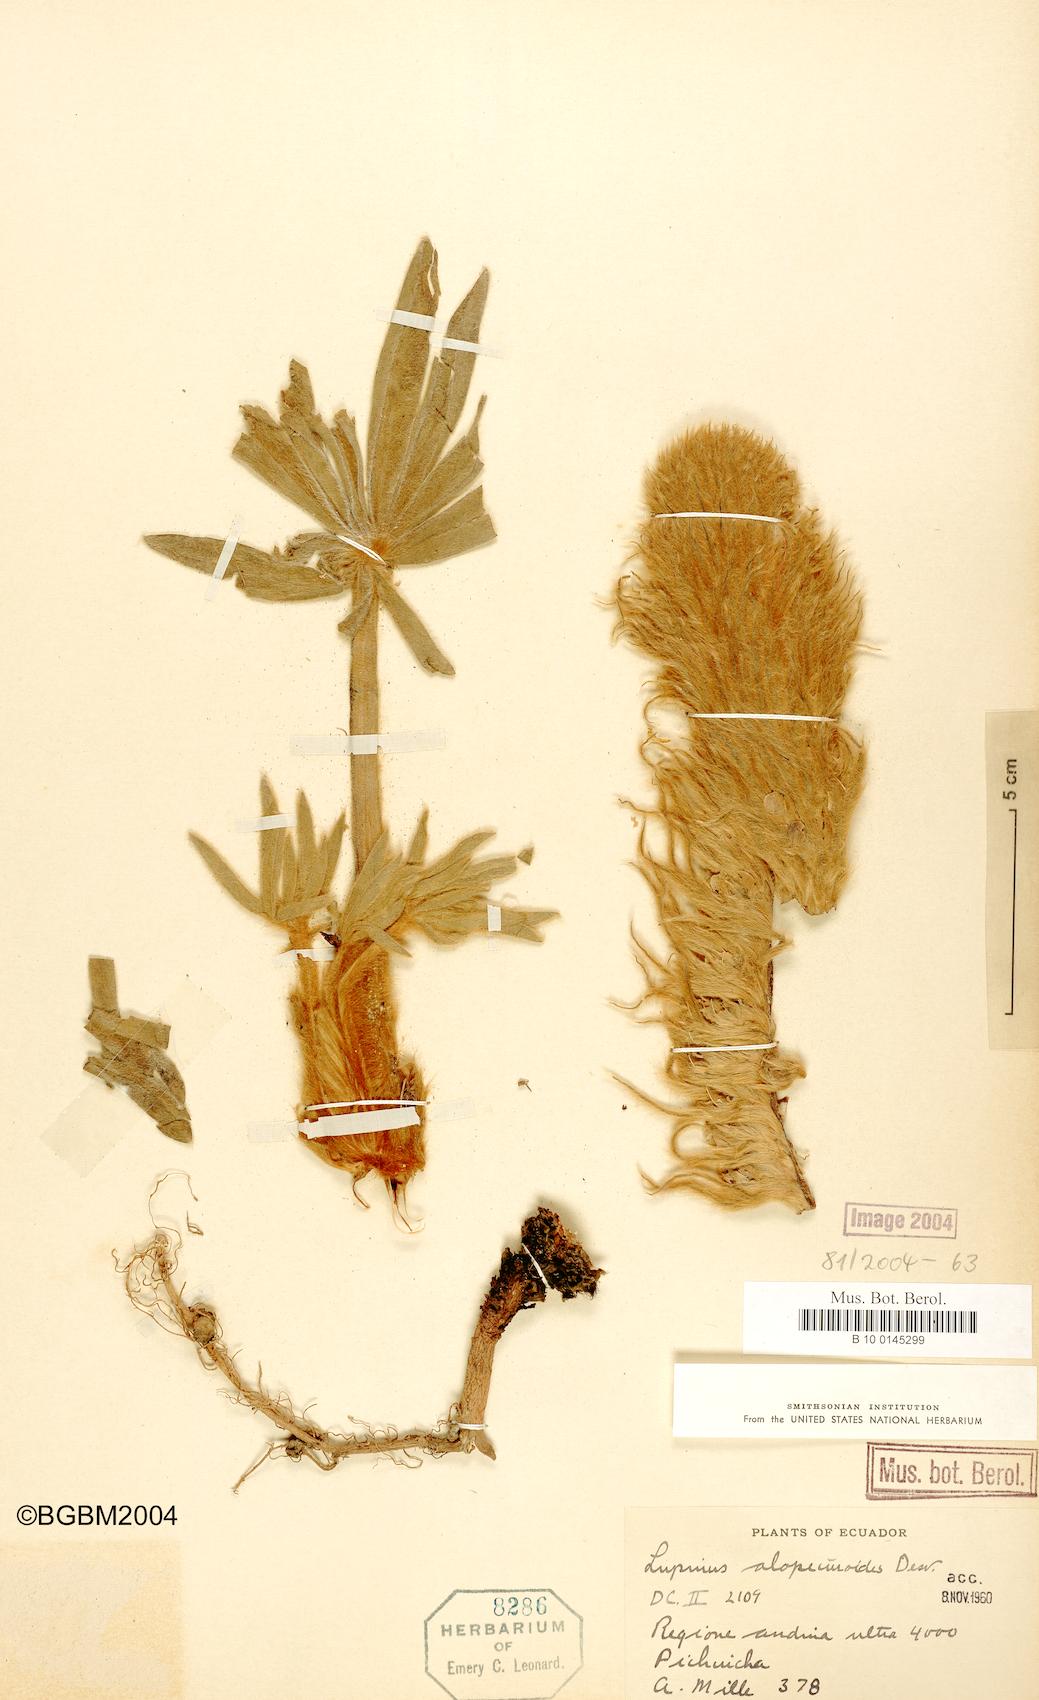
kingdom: Plantae
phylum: Tracheophyta
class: Magnoliopsida
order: Fabales
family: Fabaceae
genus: Lupinus
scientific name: Lupinus alopecuroides
